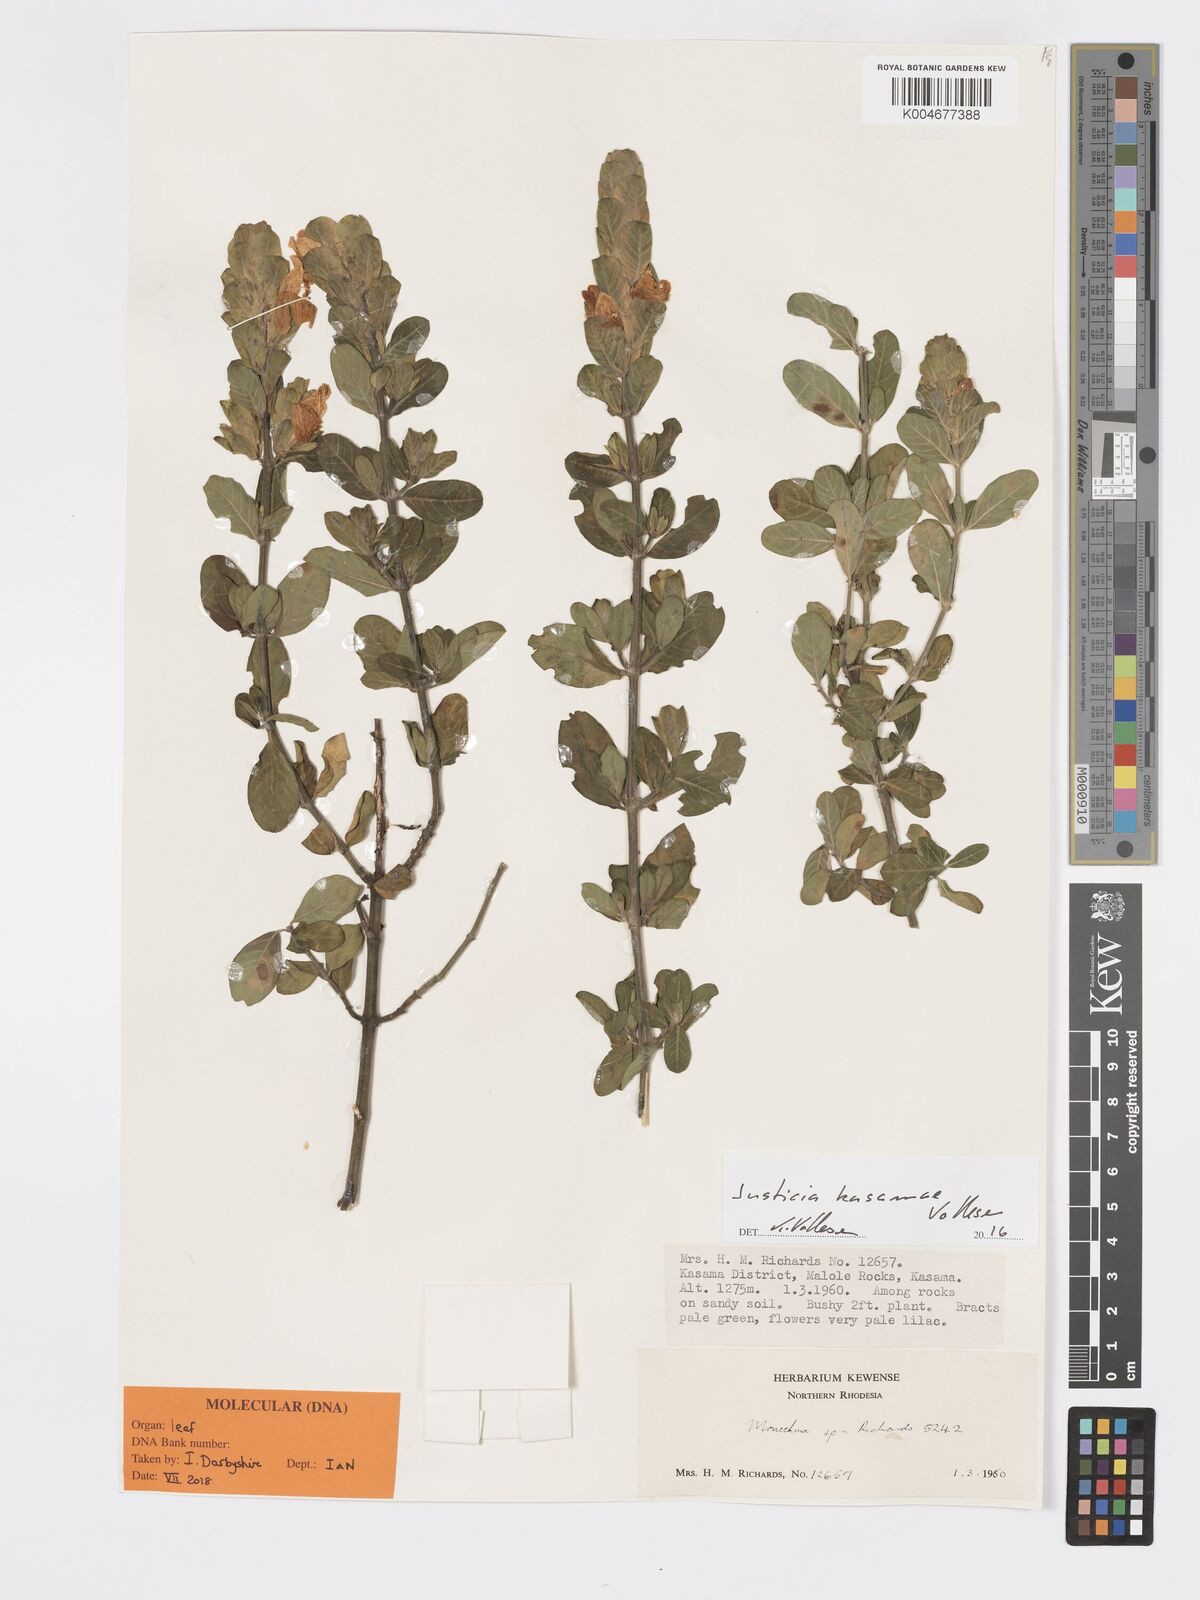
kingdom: Plantae
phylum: Tracheophyta
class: Magnoliopsida
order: Lamiales
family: Acanthaceae
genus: Pogonospermum
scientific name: Pogonospermum
